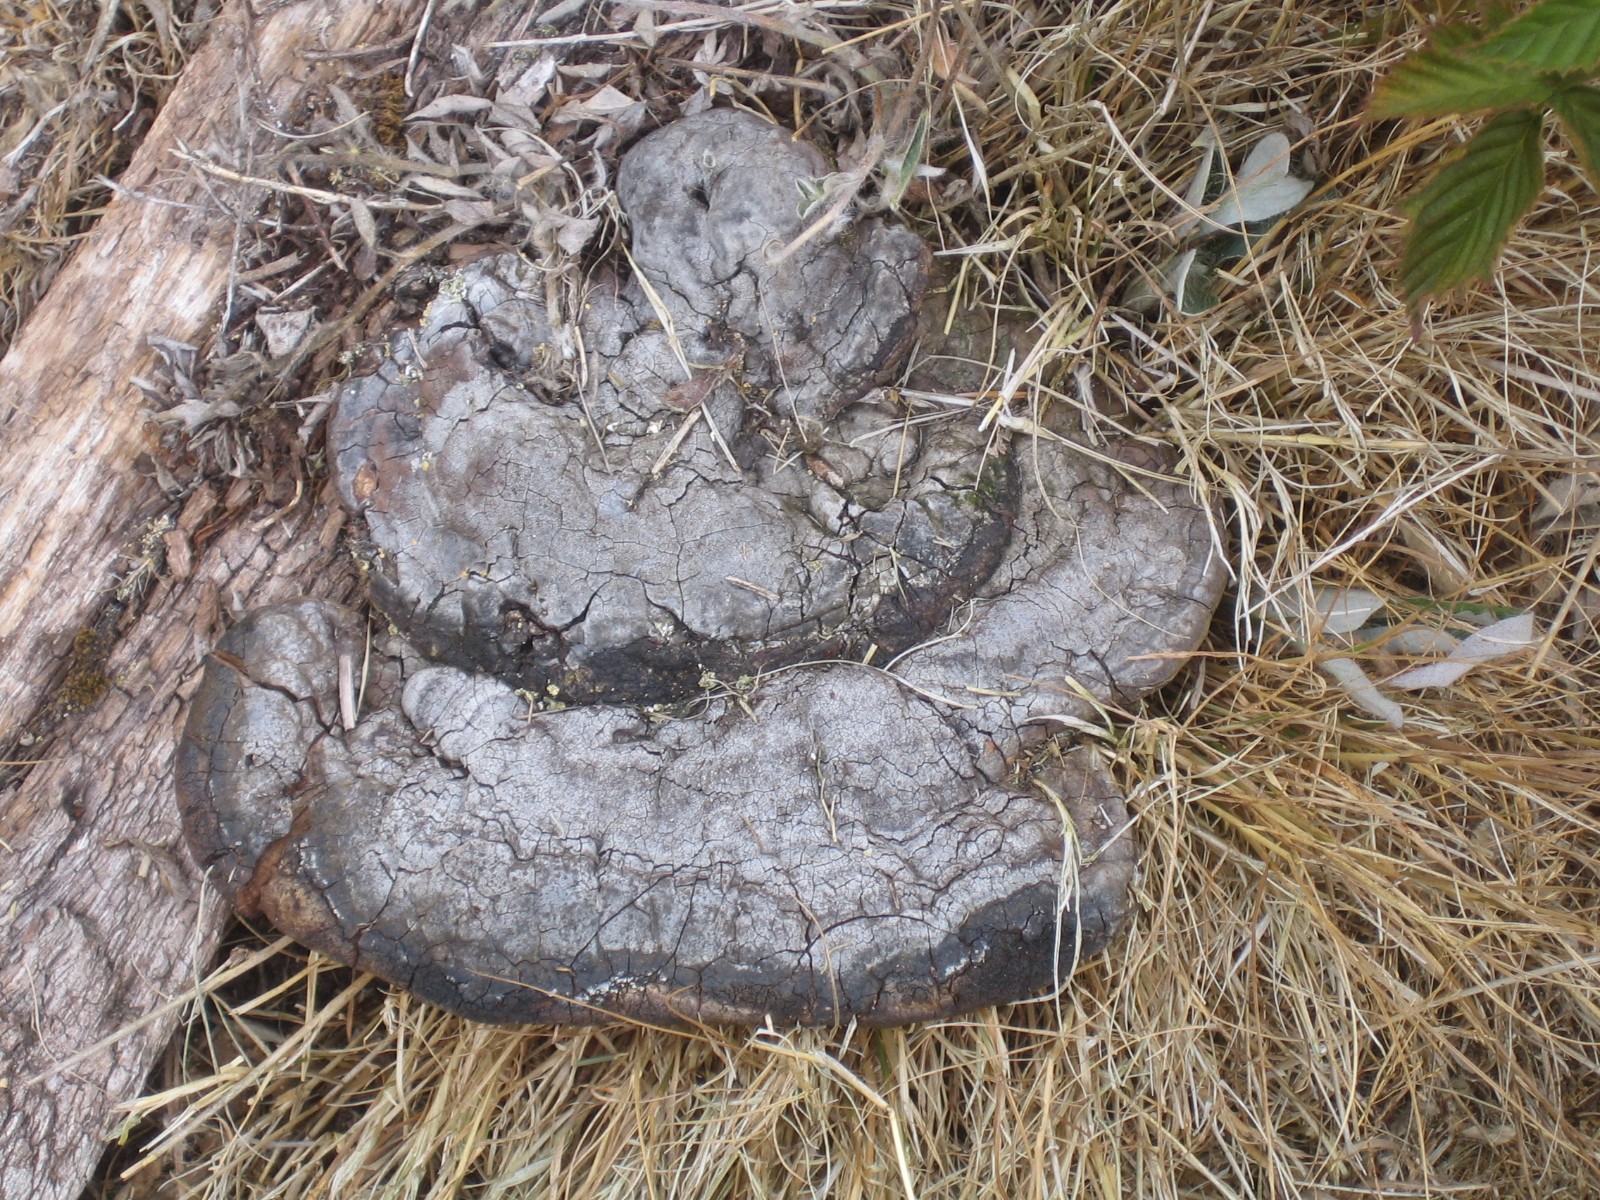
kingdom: Fungi
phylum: Basidiomycota
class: Agaricomycetes
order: Polyporales
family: Polyporaceae
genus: Ganoderma
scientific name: Ganoderma applanatum
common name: flad lakporesvamp
